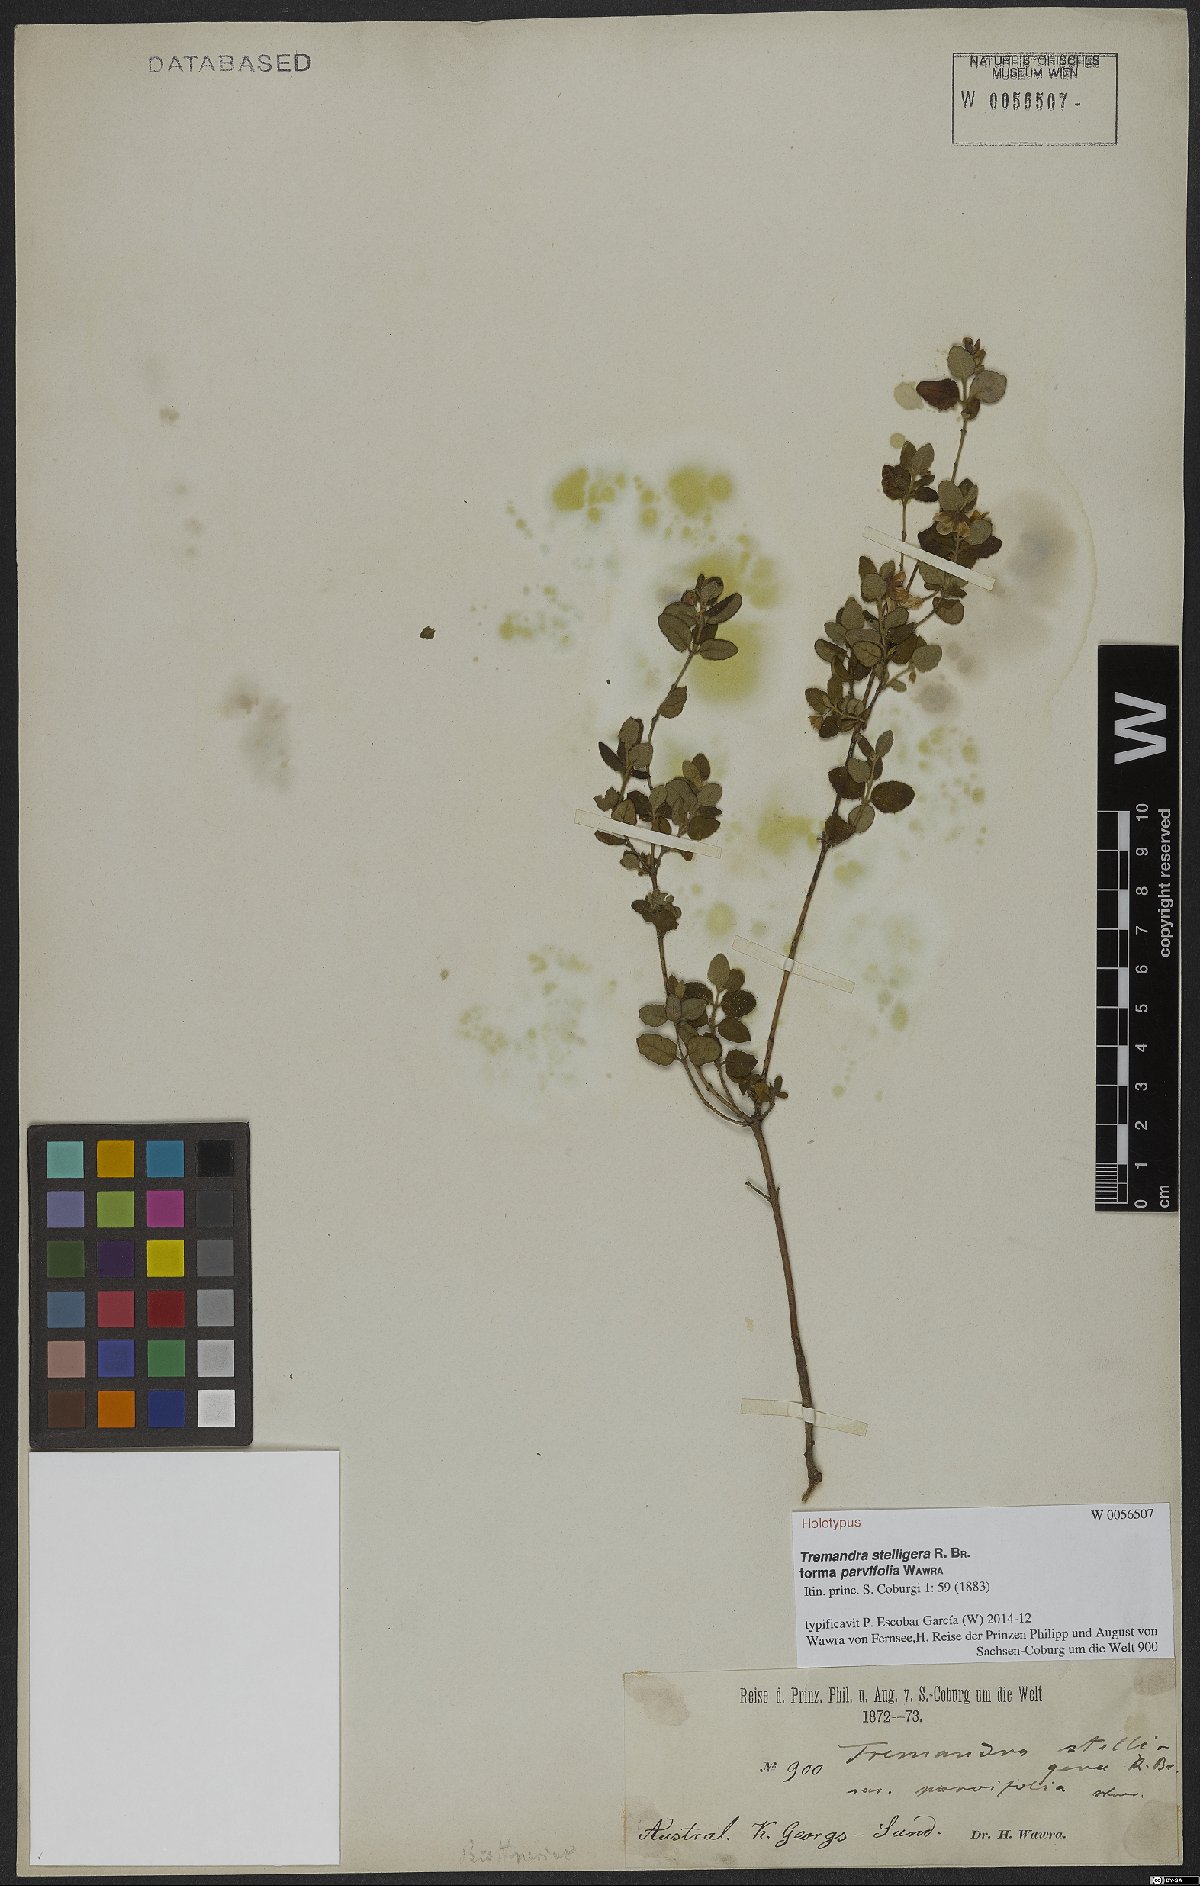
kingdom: Plantae
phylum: Tracheophyta
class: Magnoliopsida
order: Oxalidales
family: Elaeocarpaceae
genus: Tremandra
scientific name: Tremandra stelligera
